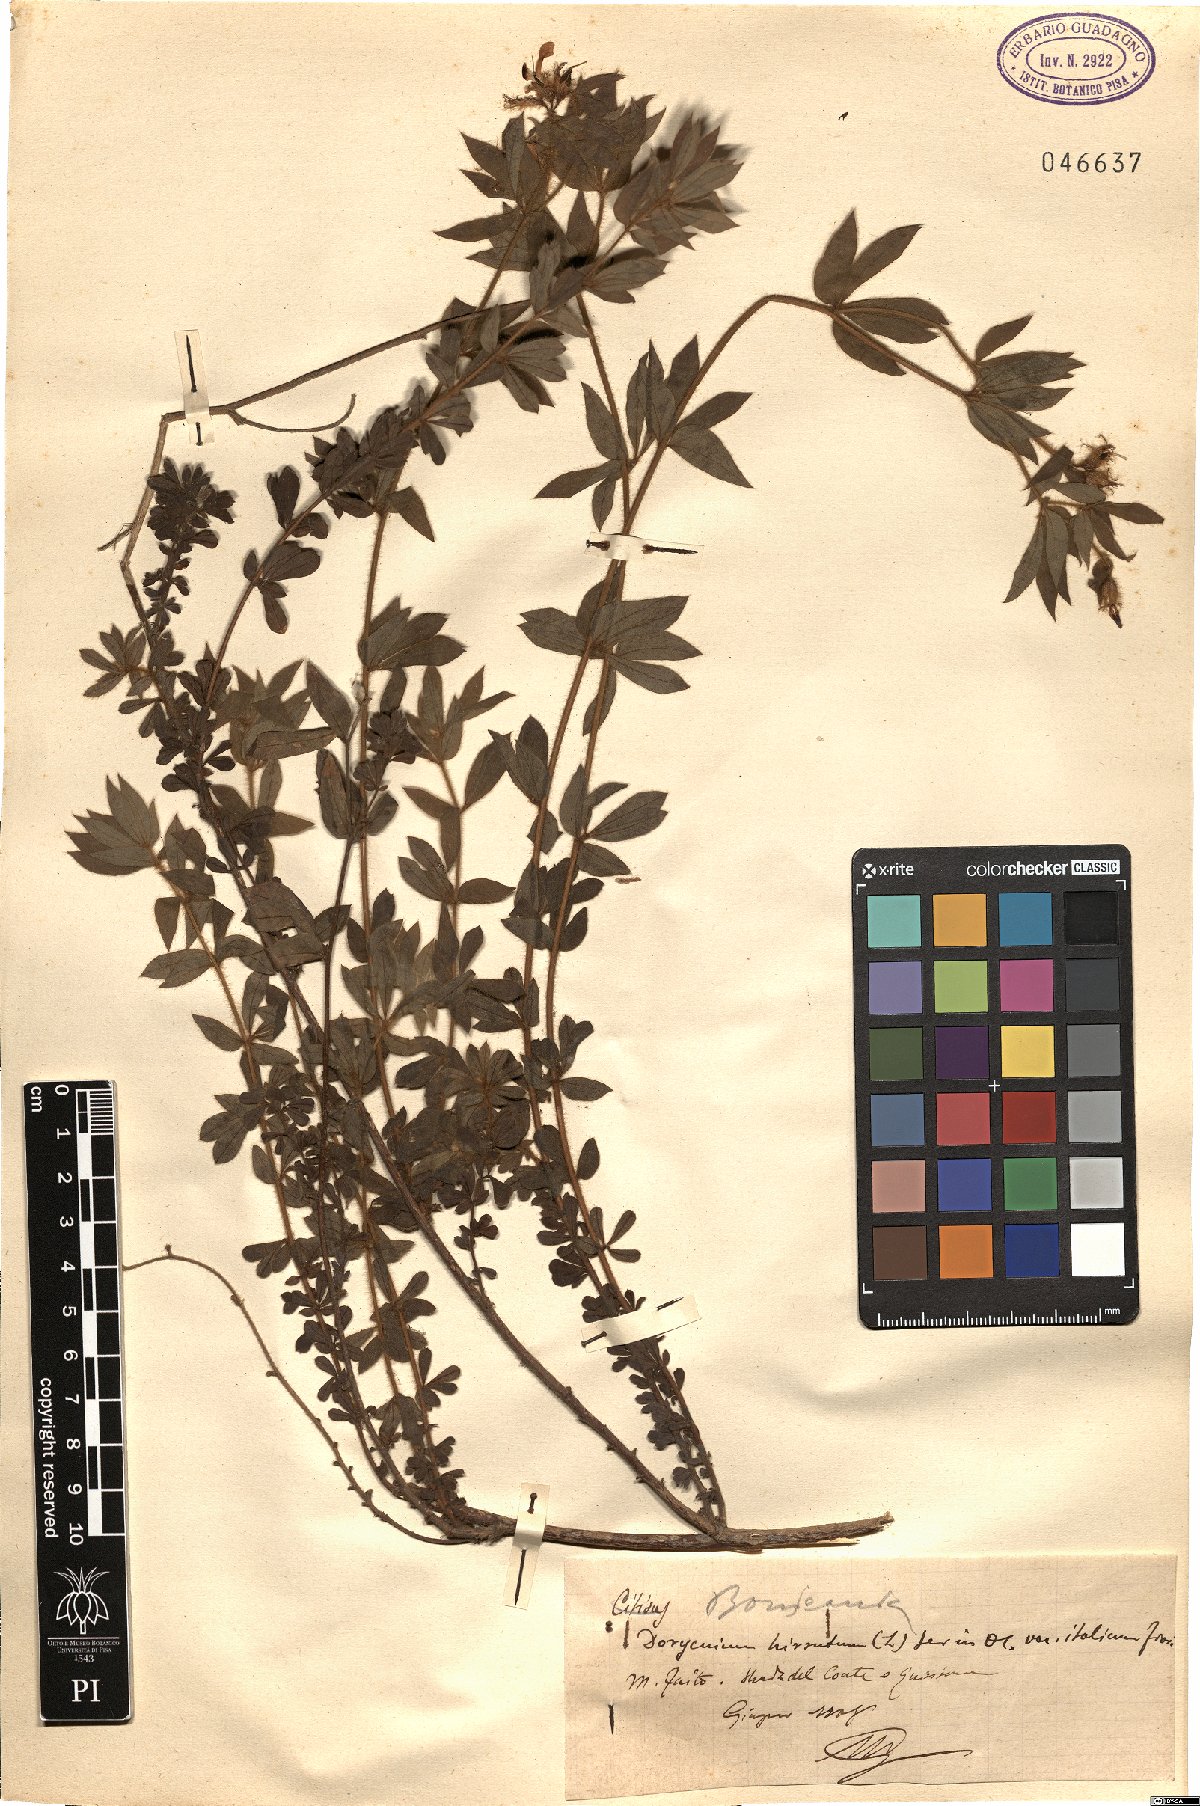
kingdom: Plantae
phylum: Tracheophyta
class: Magnoliopsida
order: Fabales
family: Fabaceae
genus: Lotus
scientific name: Lotus hirsutus
